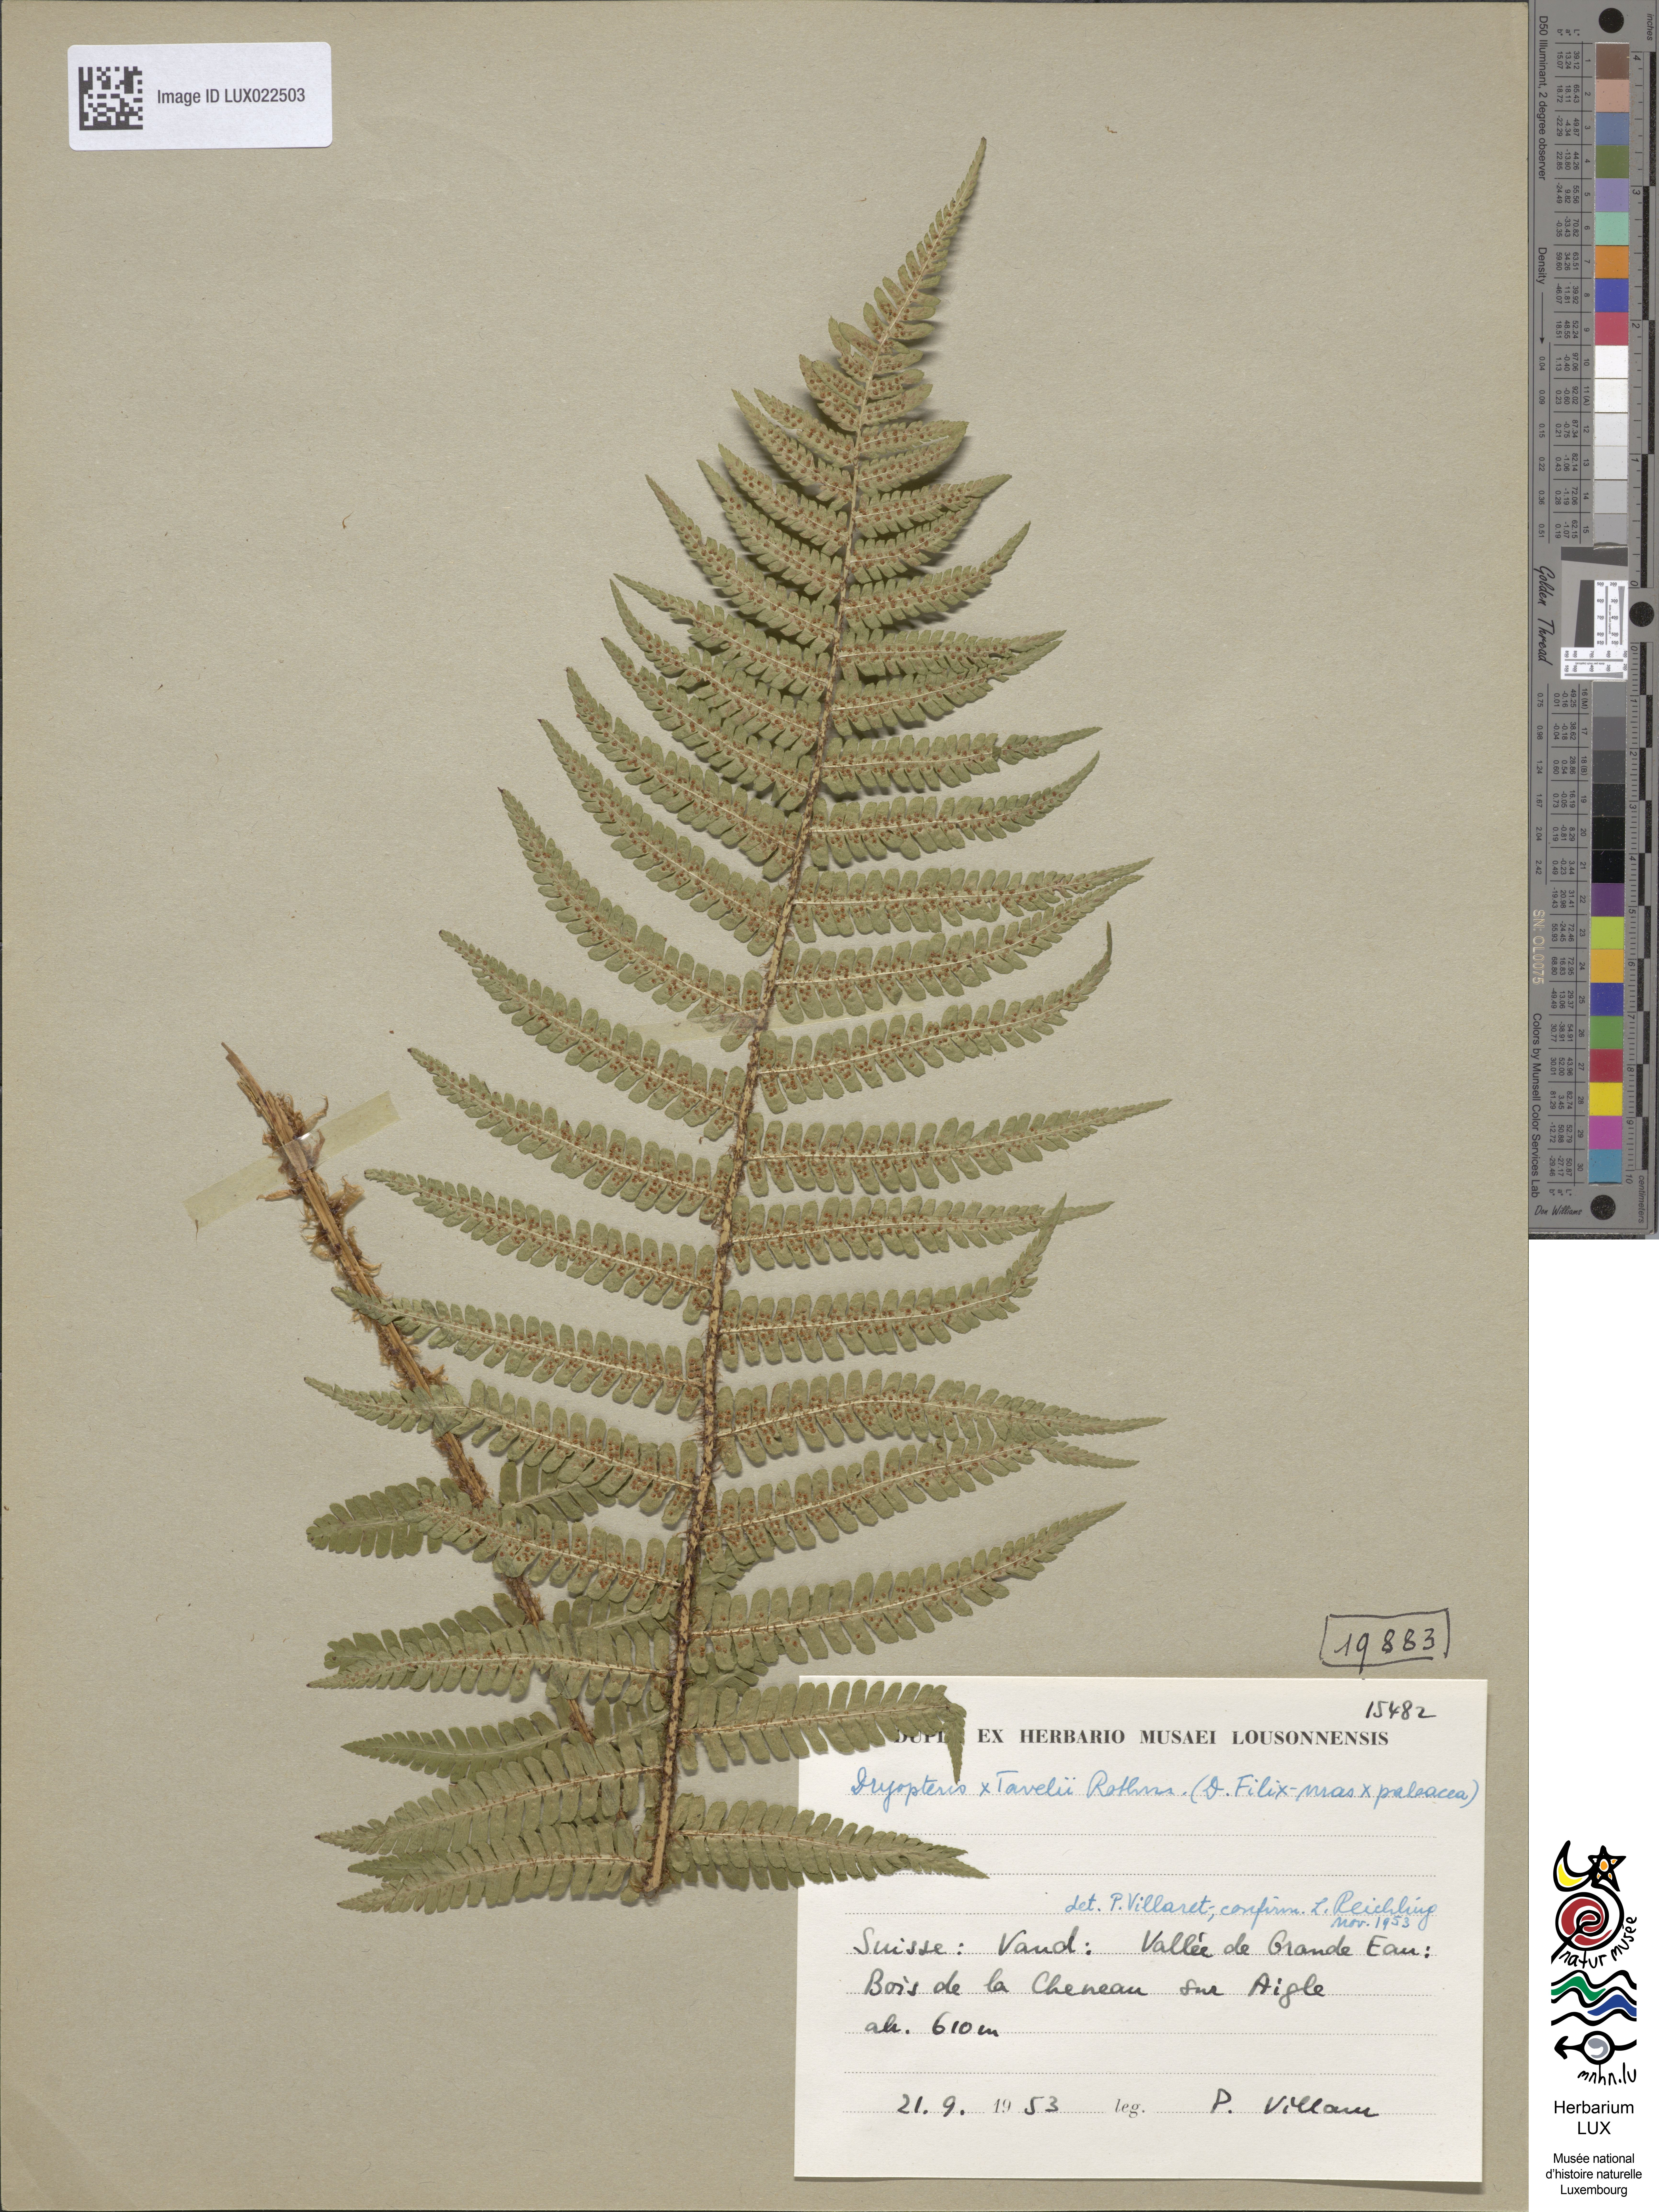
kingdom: Plantae
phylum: Tracheophyta
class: Polypodiopsida
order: Polypodiales
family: Dryopteridaceae
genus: Dryopteris
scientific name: Dryopteris borreri
